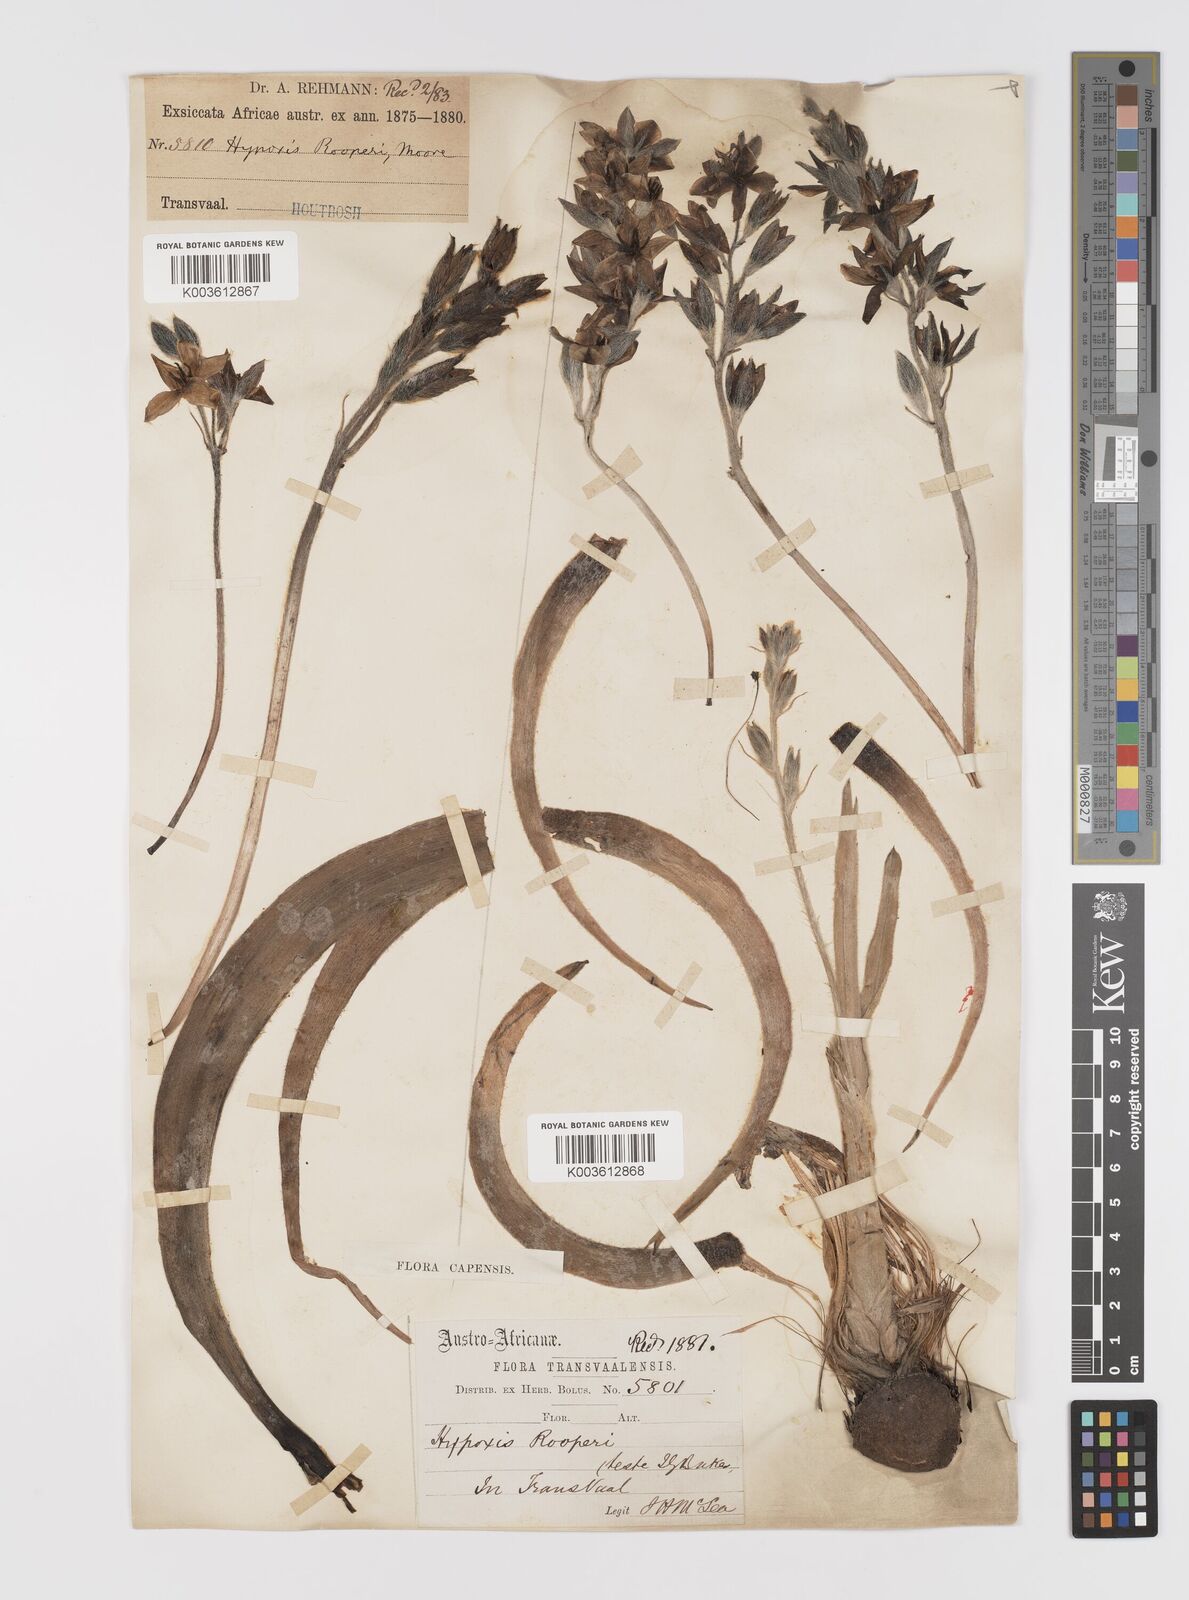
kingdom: Plantae
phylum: Tracheophyta
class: Liliopsida
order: Asparagales
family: Hypoxidaceae
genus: Hypoxis
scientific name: Hypoxis hemerocallidea
